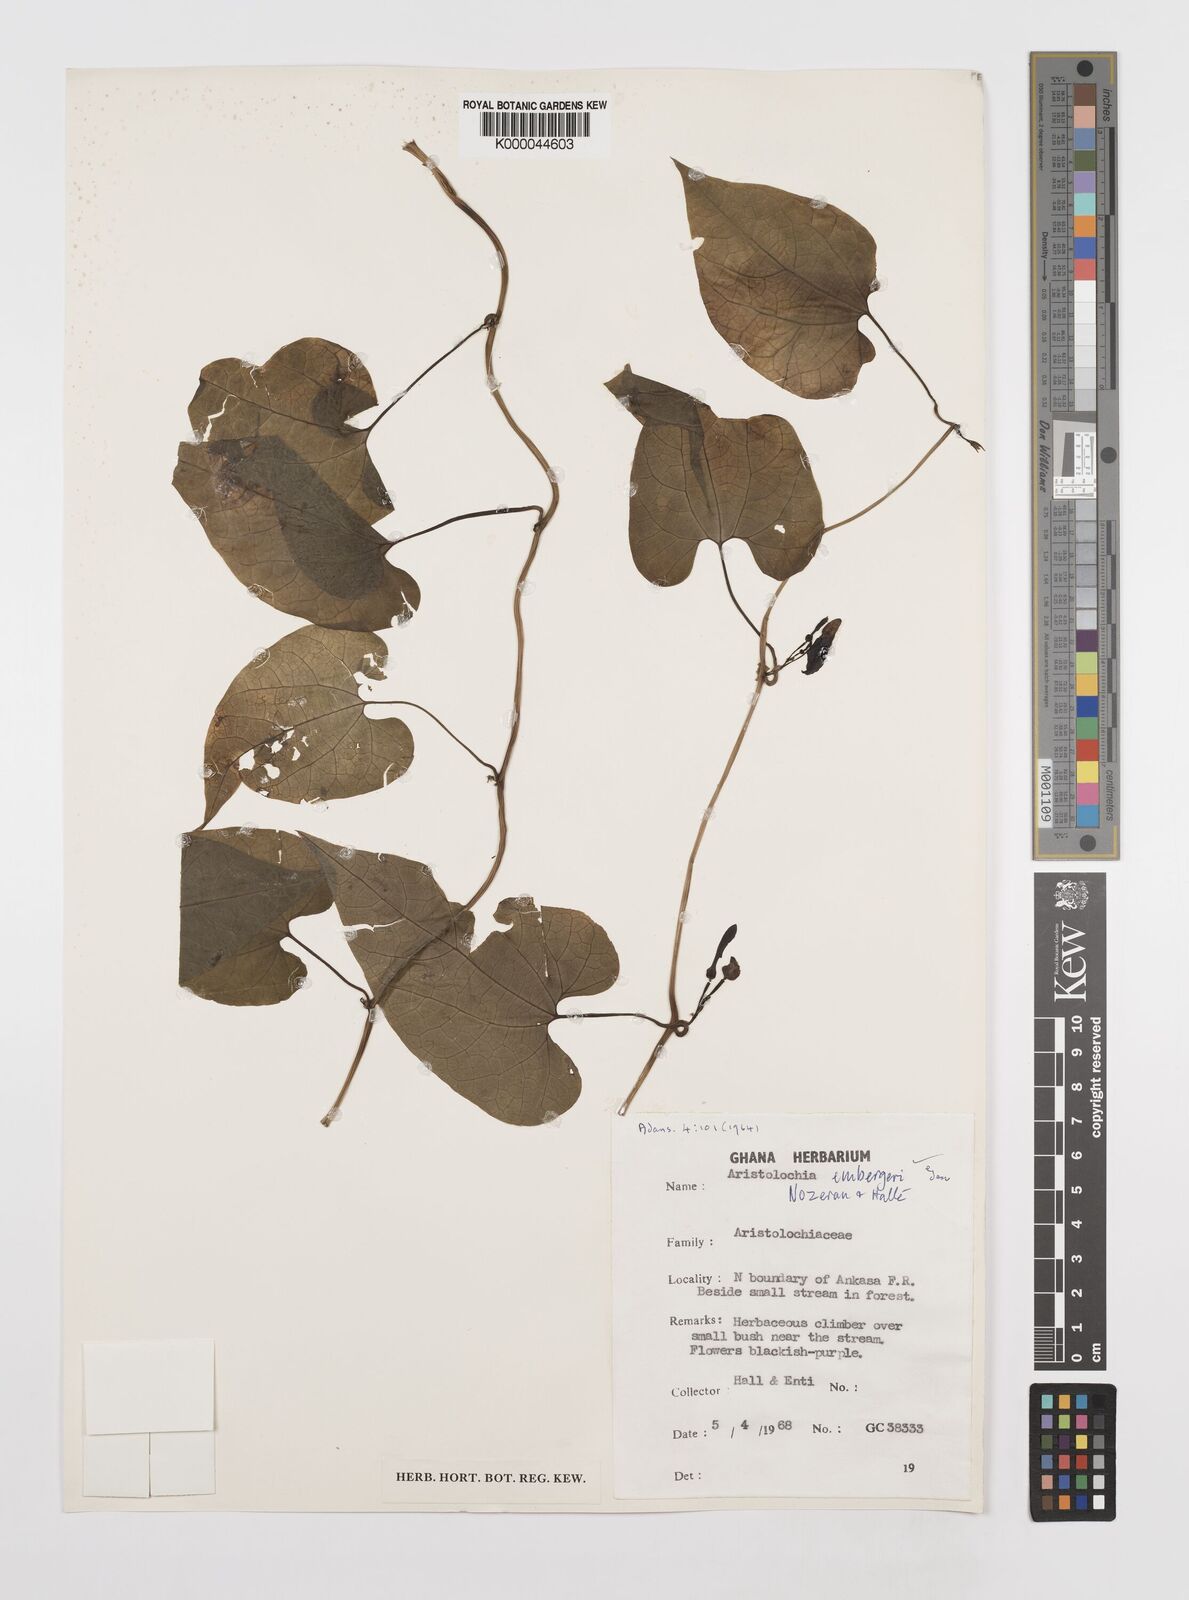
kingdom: Plantae
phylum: Tracheophyta
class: Magnoliopsida
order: Piperales
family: Aristolochiaceae
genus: Aristolochia
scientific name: Aristolochia
